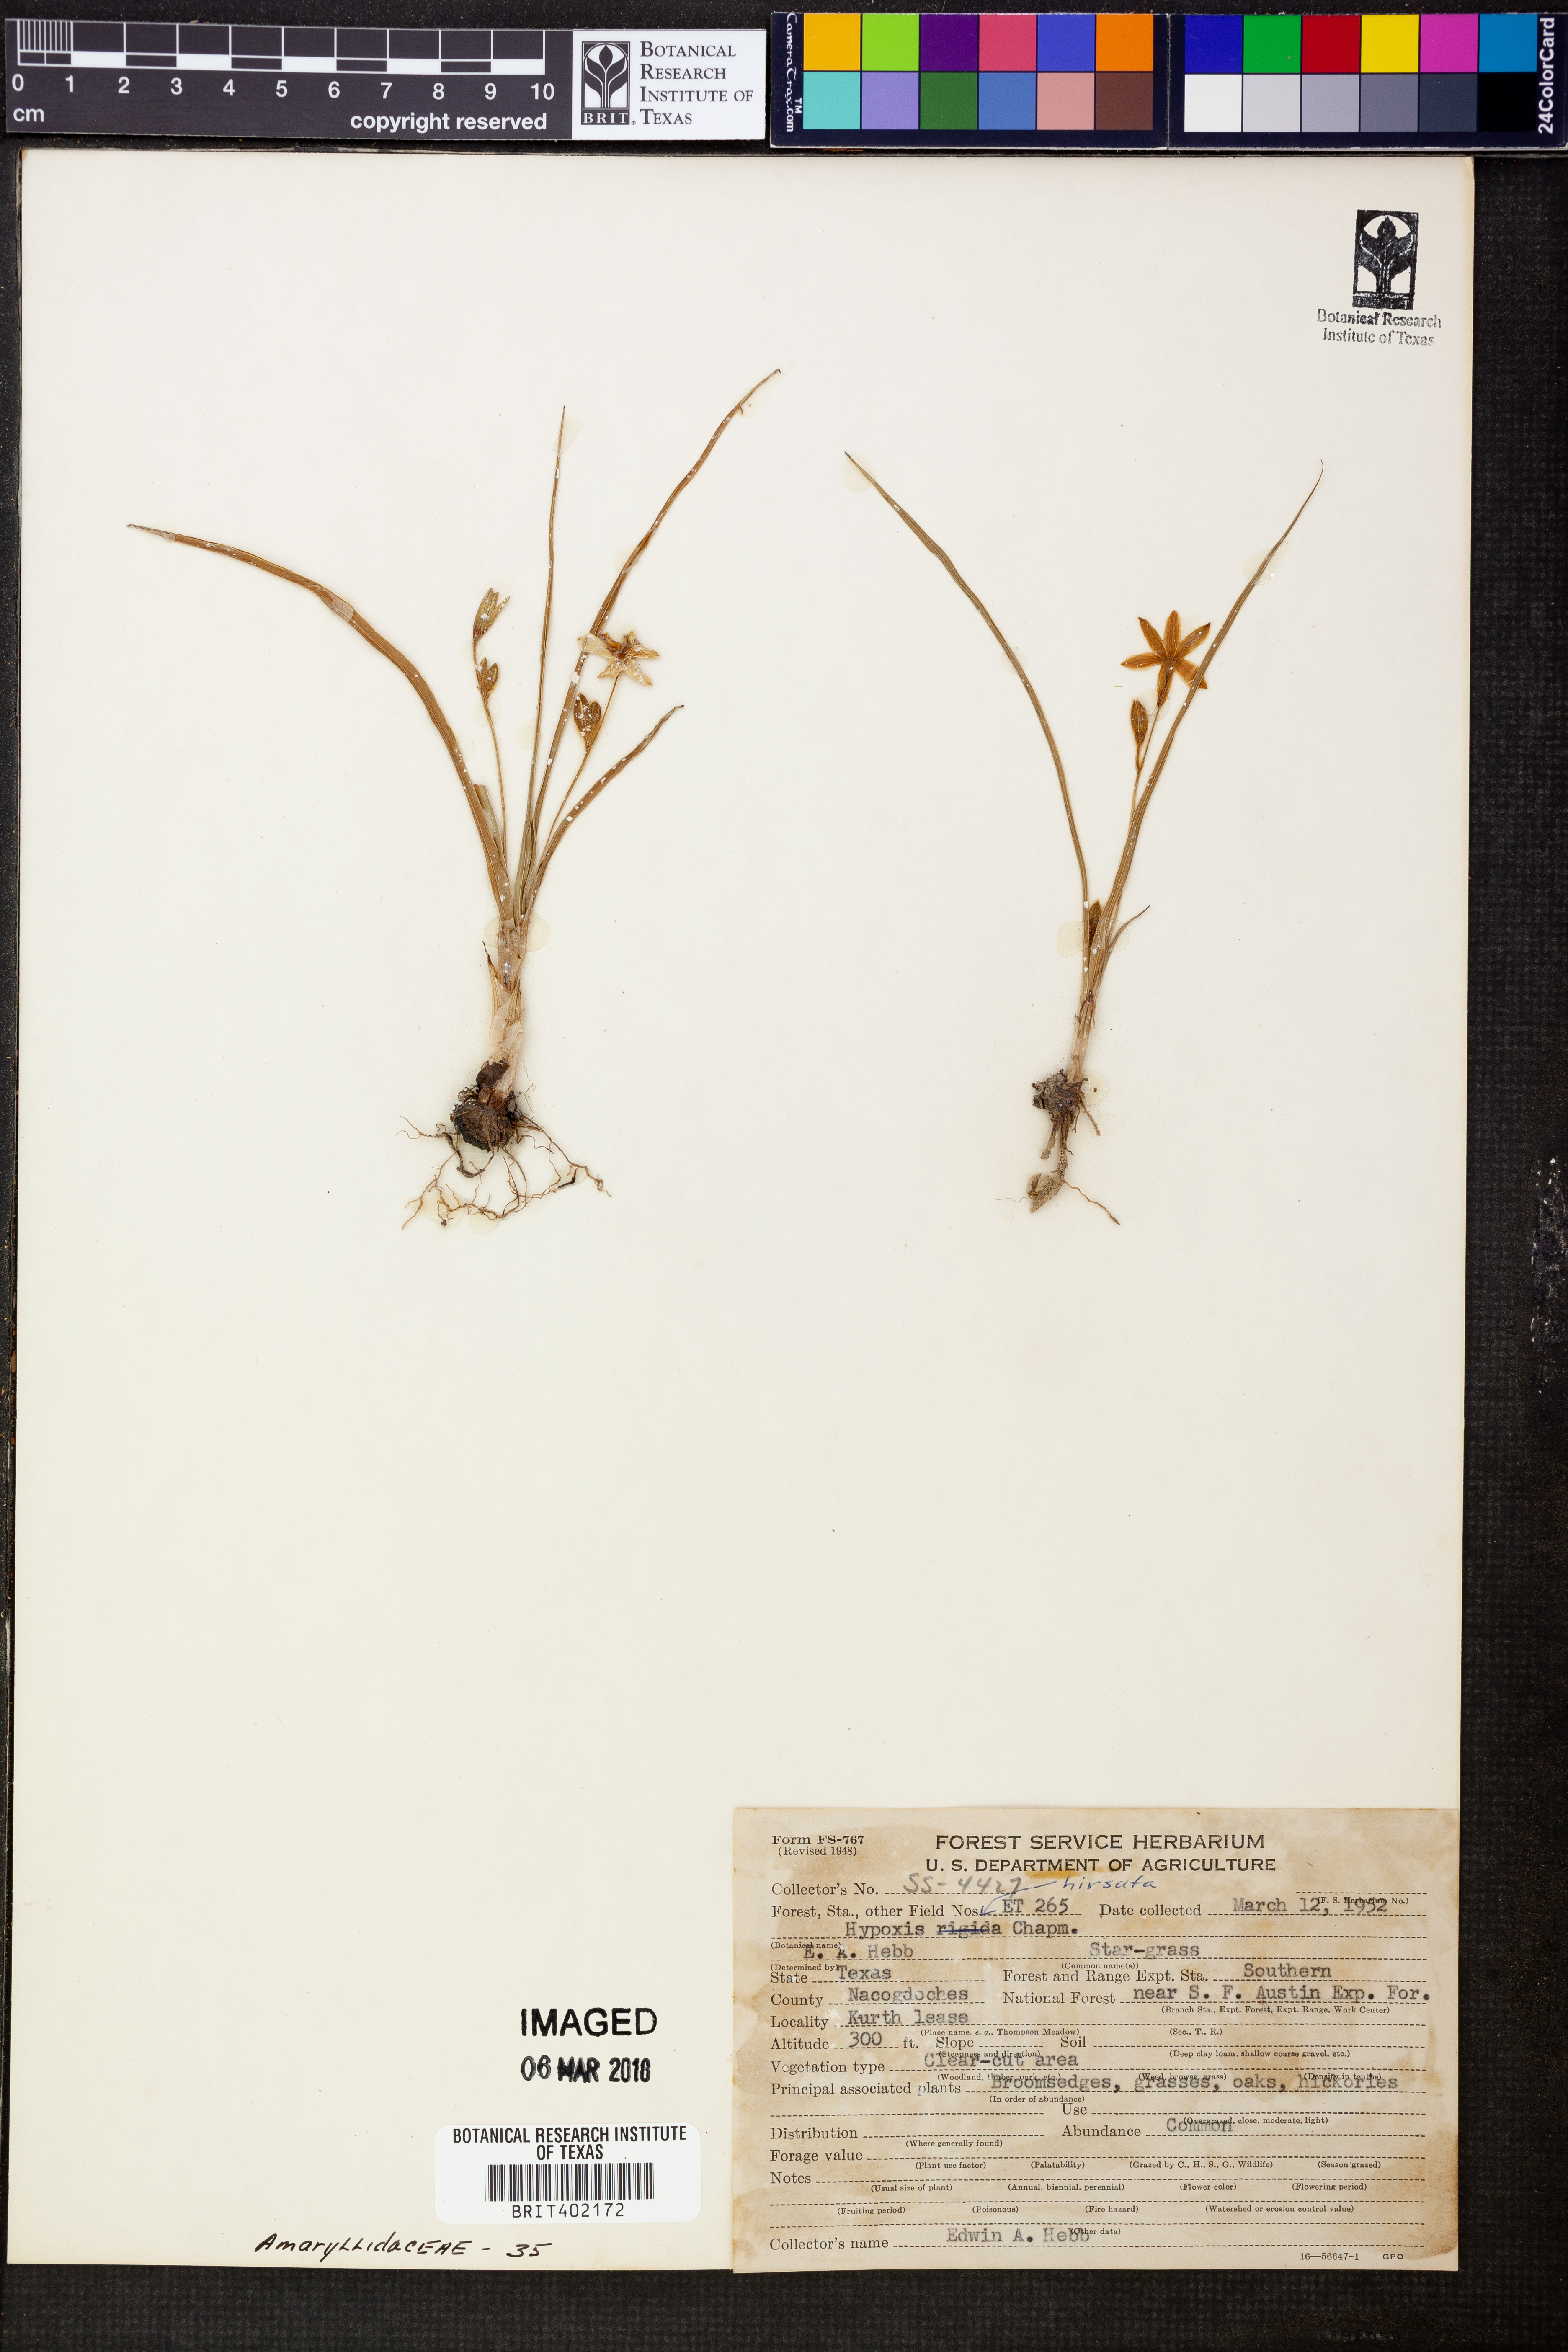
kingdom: Plantae
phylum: Tracheophyta
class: Liliopsida
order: Asparagales
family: Hypoxidaceae
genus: Hypoxis
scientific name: Hypoxis hirsuta
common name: Common goldstar
